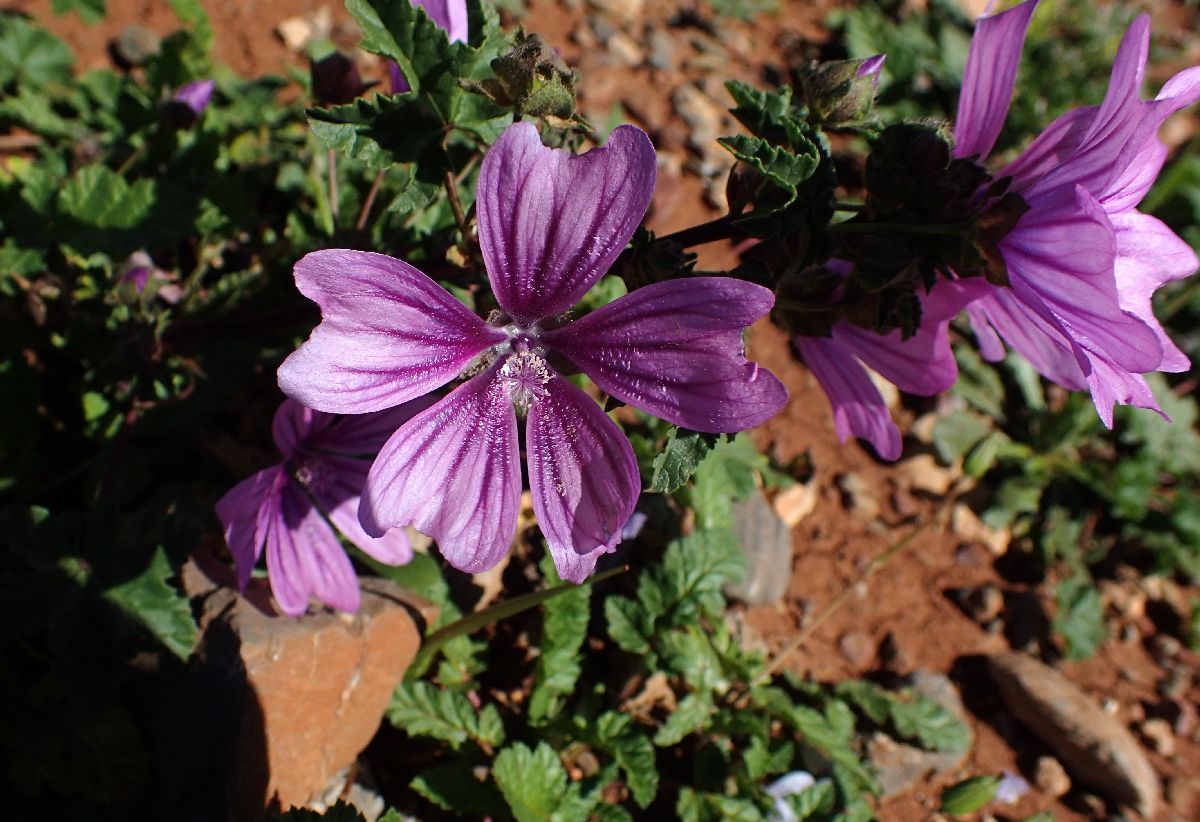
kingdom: Plantae
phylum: Tracheophyta
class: Magnoliopsida
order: Malvales
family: Malvaceae
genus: Malva
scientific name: Malva sylvestris
